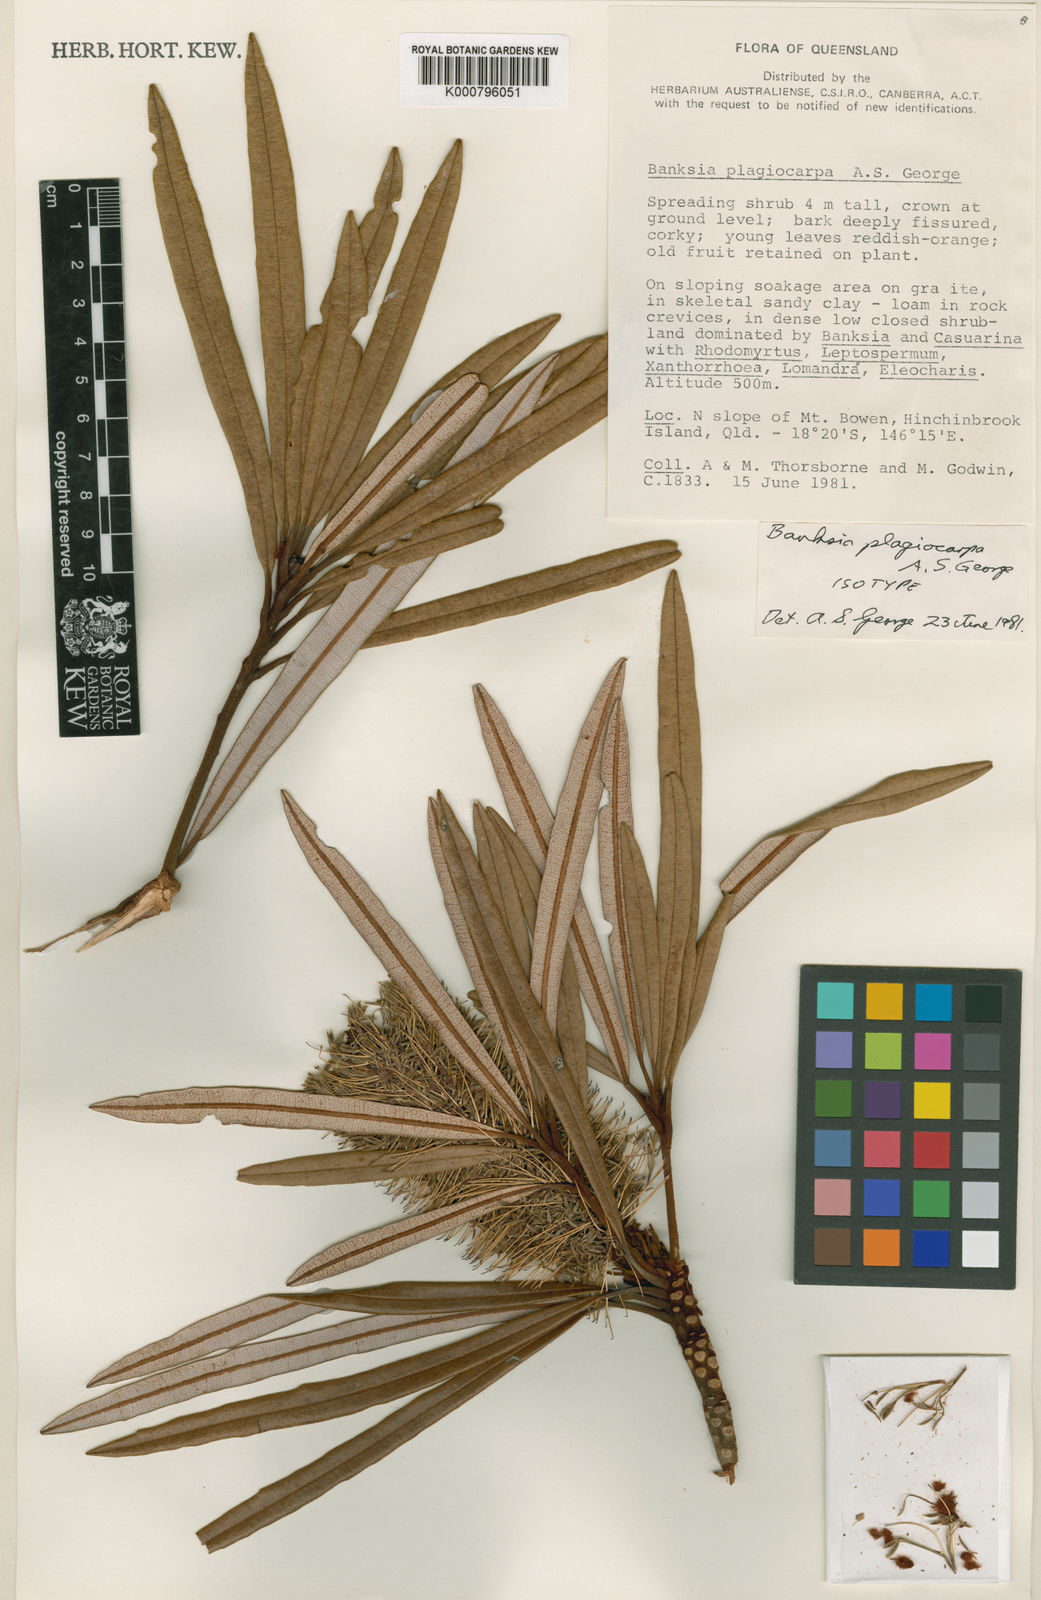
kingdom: Plantae
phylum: Tracheophyta
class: Magnoliopsida
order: Proteales
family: Proteaceae
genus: Banksia
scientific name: Banksia plagiocarpa
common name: Dallachy's banksia
